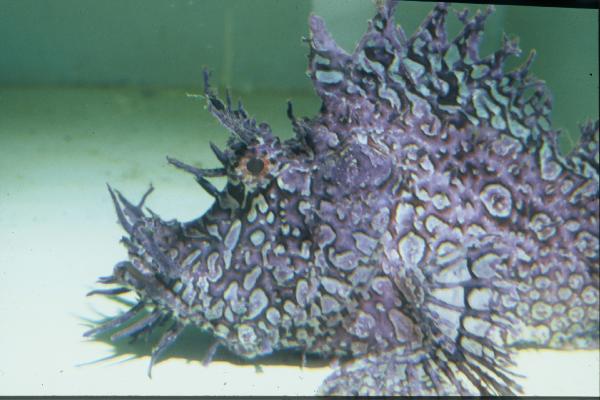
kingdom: Animalia
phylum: Chordata
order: Scorpaeniformes
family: Scorpaenidae
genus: Rhinopias
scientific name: Rhinopias frondosa
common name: Weedy scorpionfish
